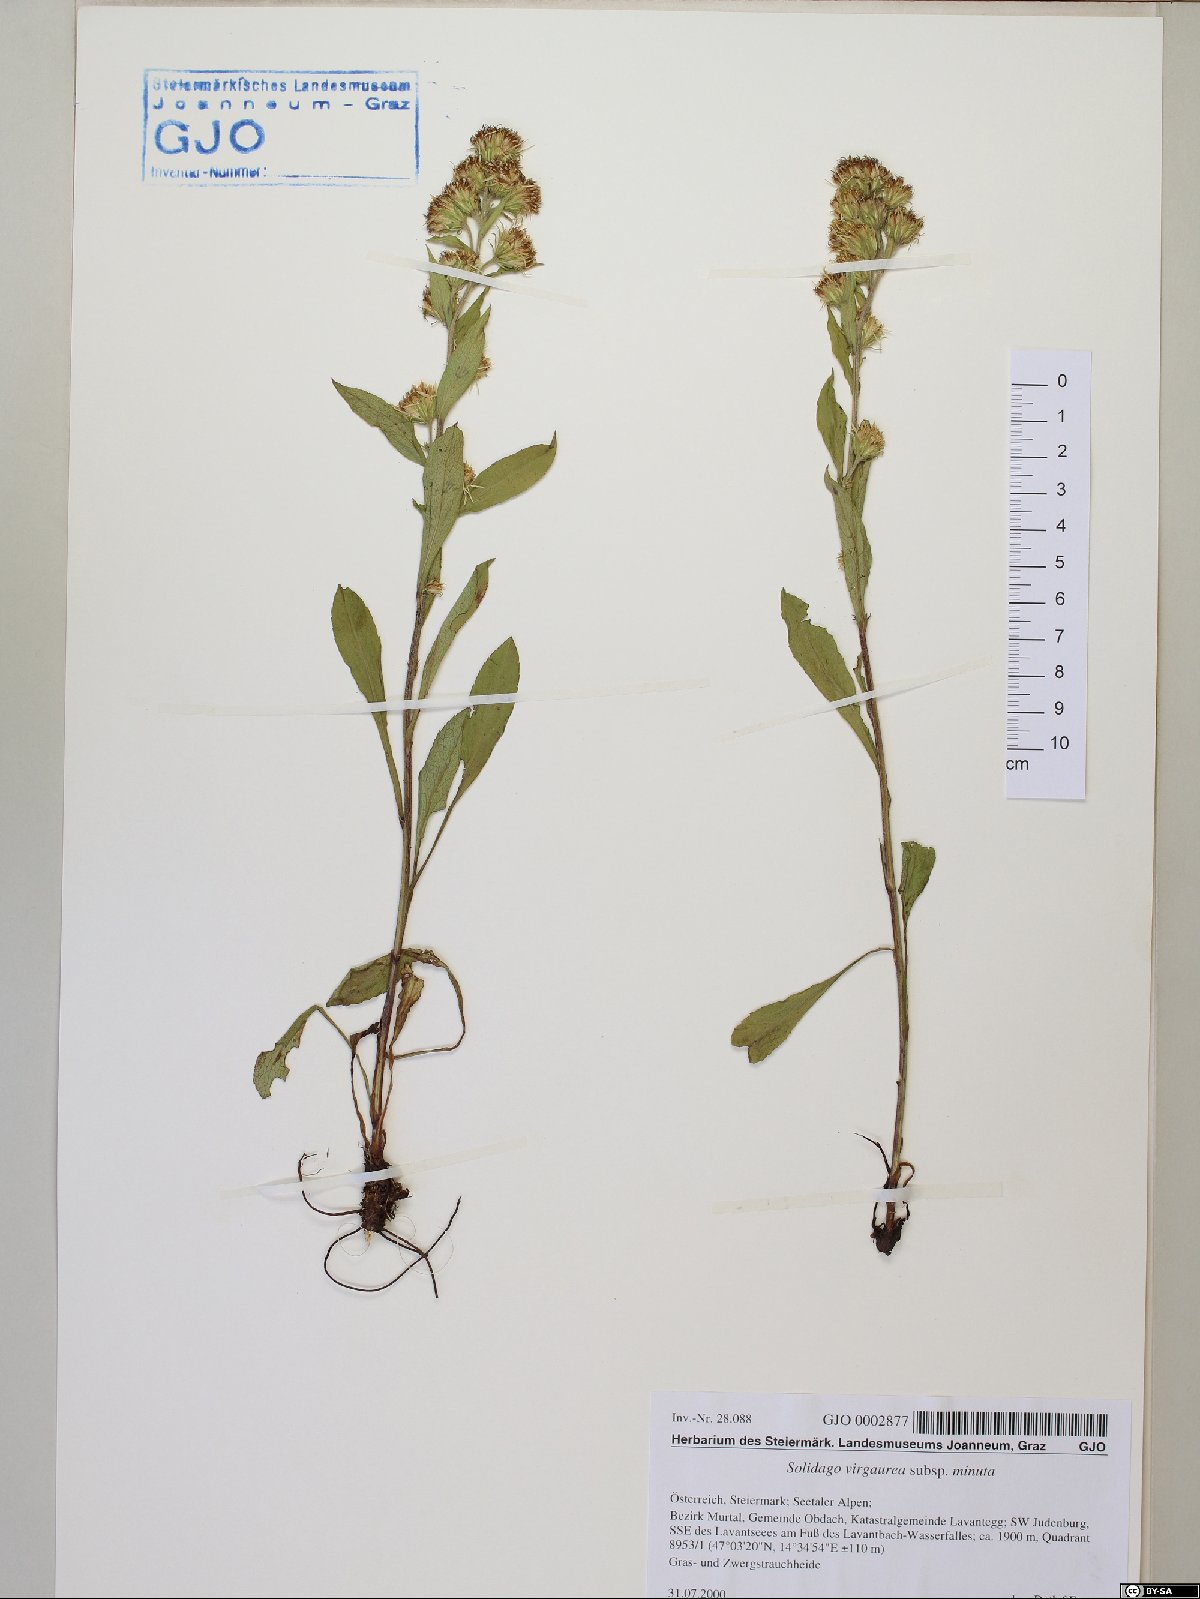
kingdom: Plantae
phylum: Tracheophyta
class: Magnoliopsida
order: Asterales
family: Asteraceae
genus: Solidago
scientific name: Solidago virgaurea
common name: Goldenrod
